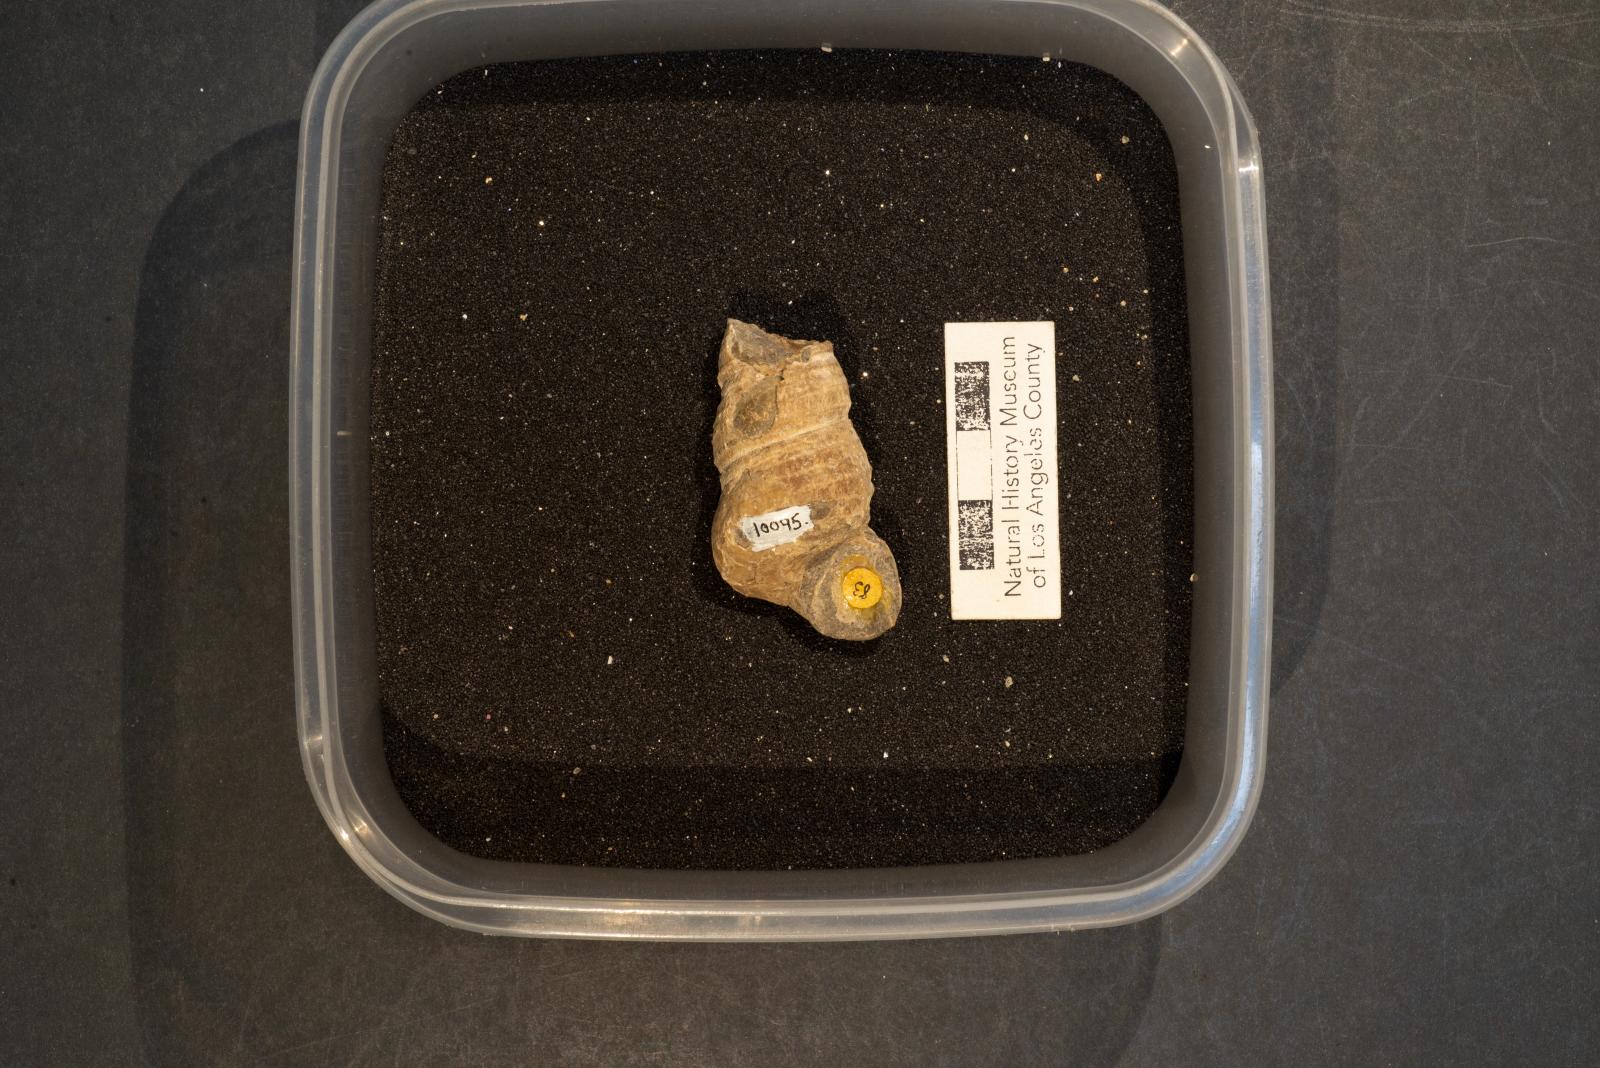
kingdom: Animalia
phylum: Mollusca
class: Gastropoda
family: Turritellidae
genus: Turritella
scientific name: Turritella chicoensis
